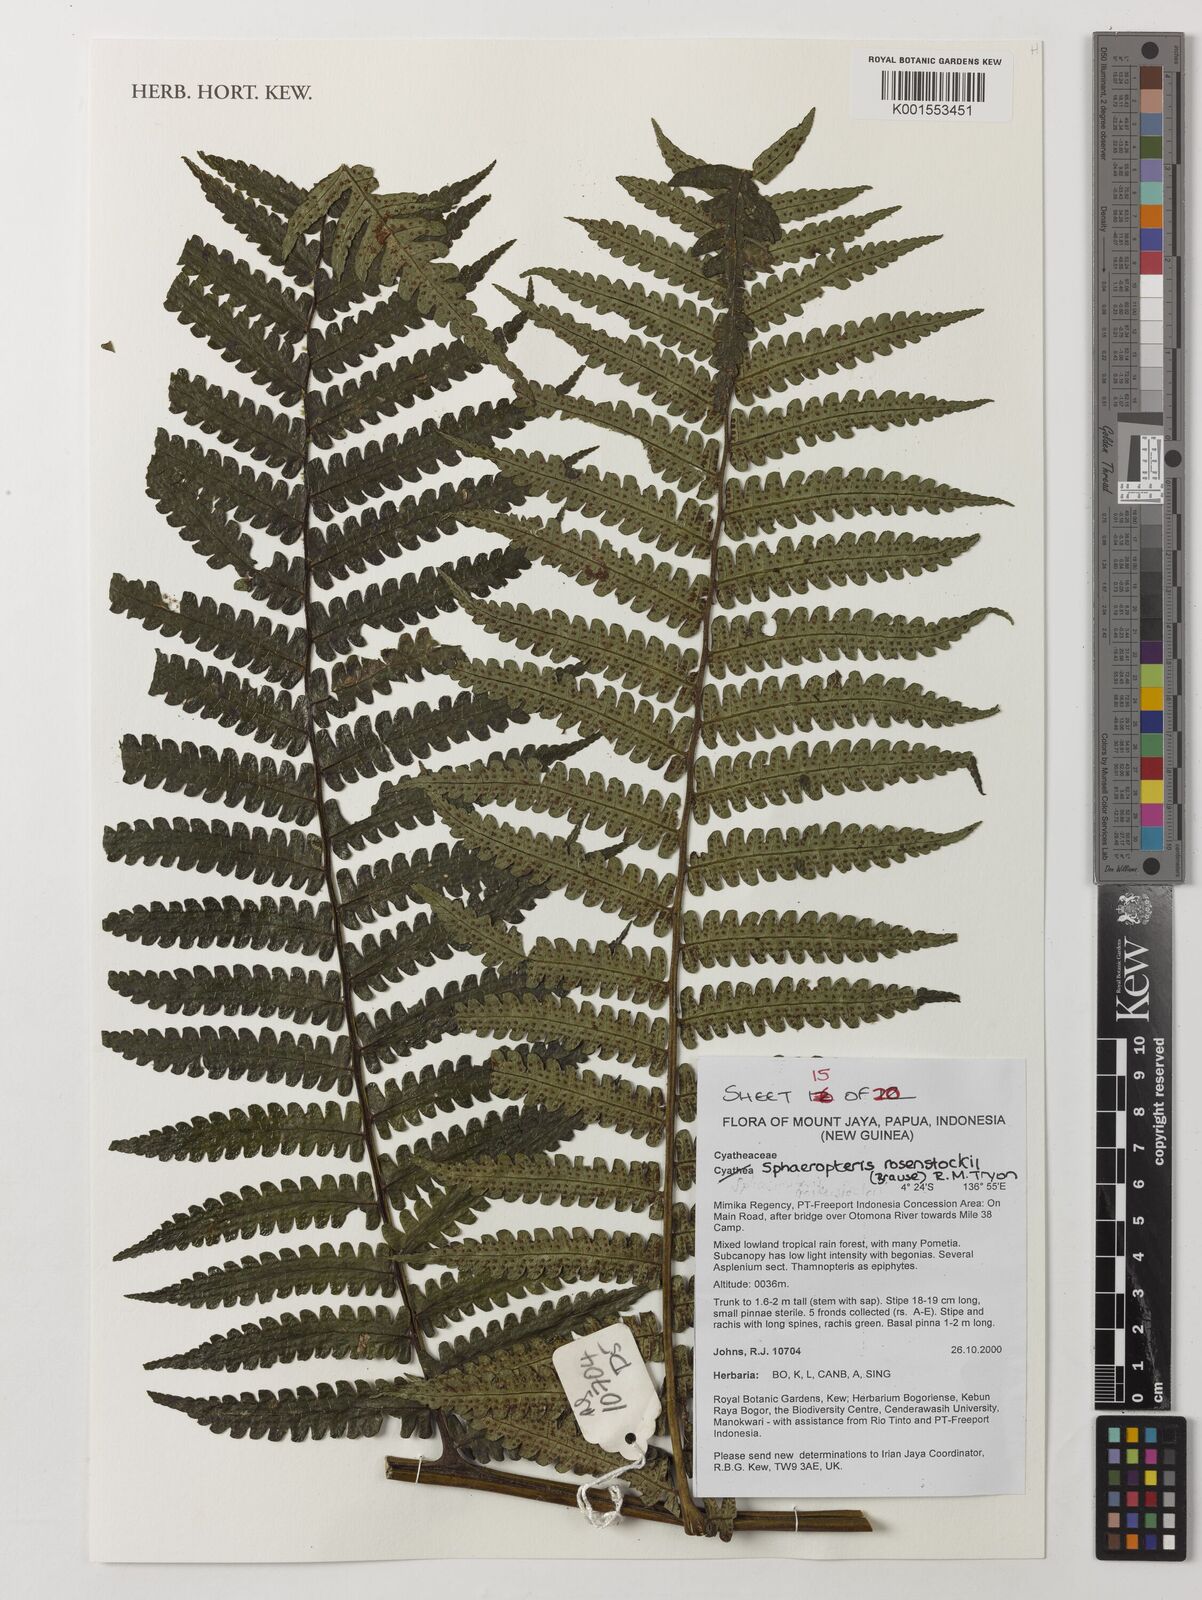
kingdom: Plantae
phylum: Tracheophyta
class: Polypodiopsida
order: Cyatheales
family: Cyatheaceae
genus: Sphaeropteris
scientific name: Sphaeropteris rosenstockii
